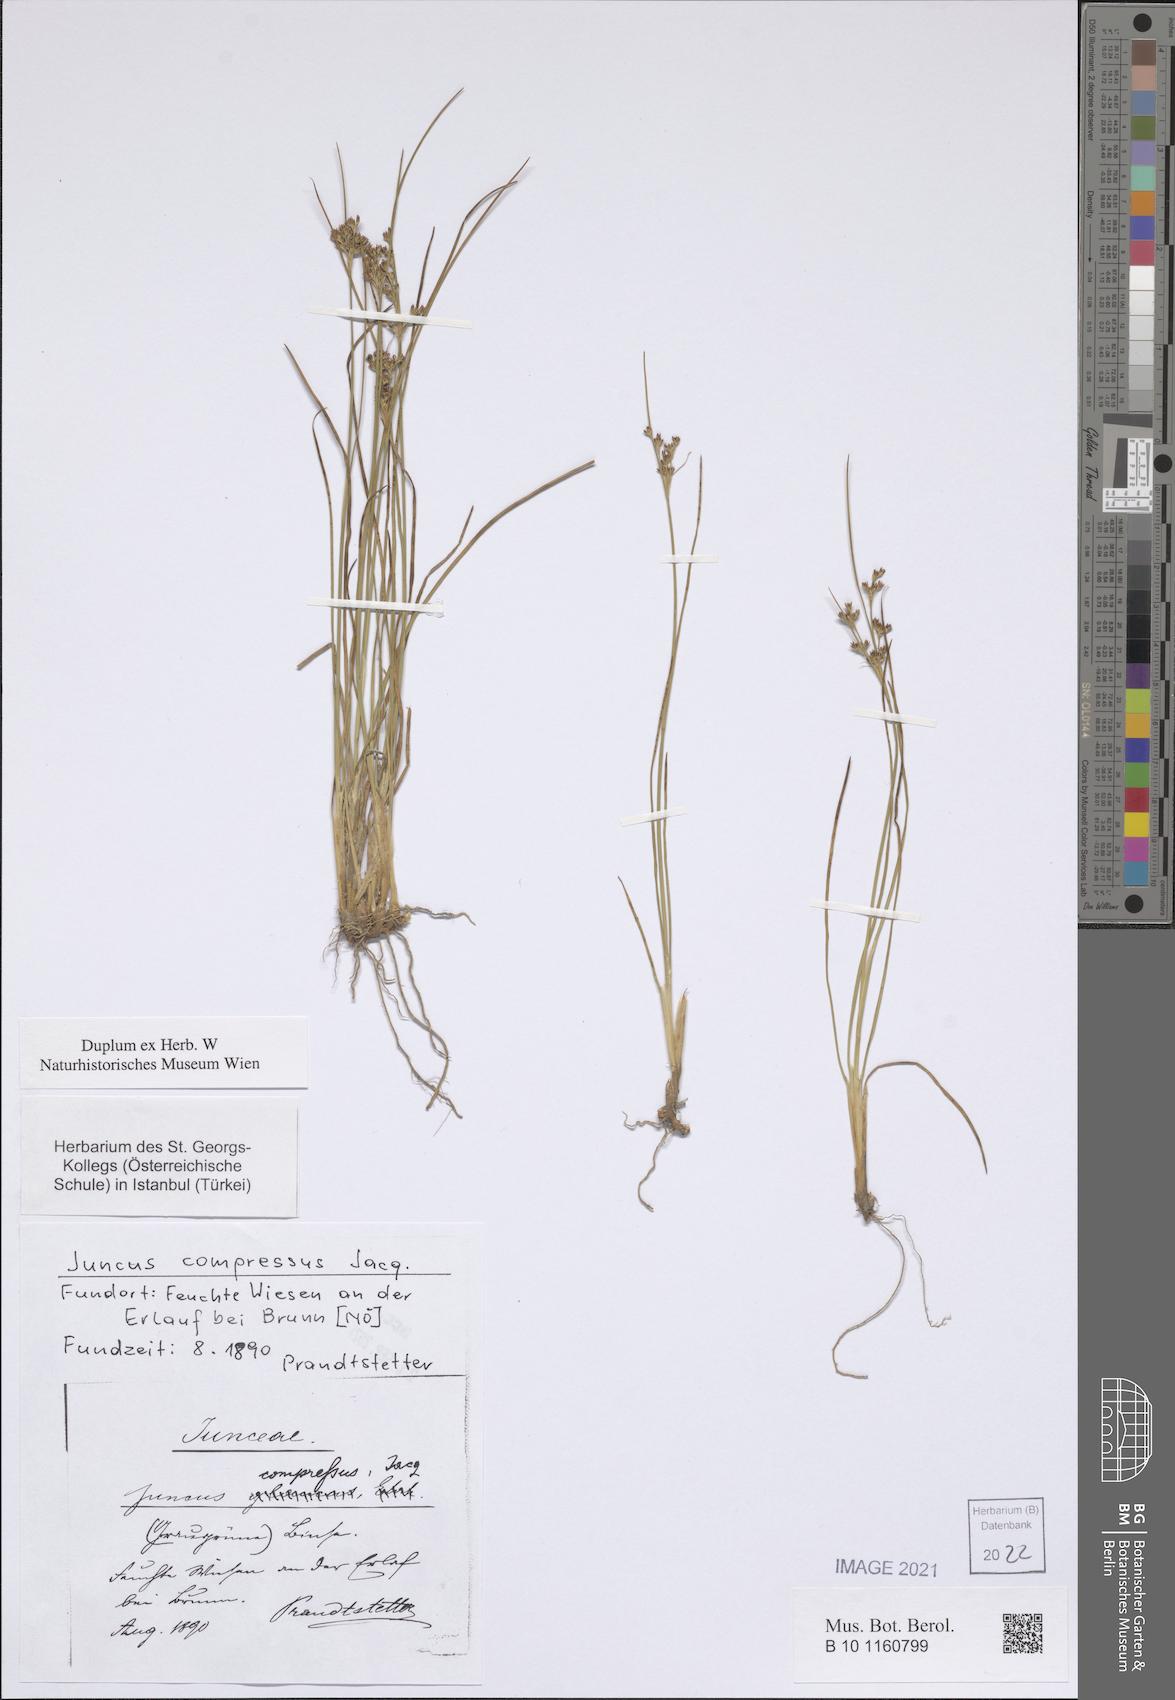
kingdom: Plantae
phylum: Tracheophyta
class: Liliopsida
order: Poales
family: Juncaceae
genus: Juncus
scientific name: Juncus compressus
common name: Round-fruited rush
